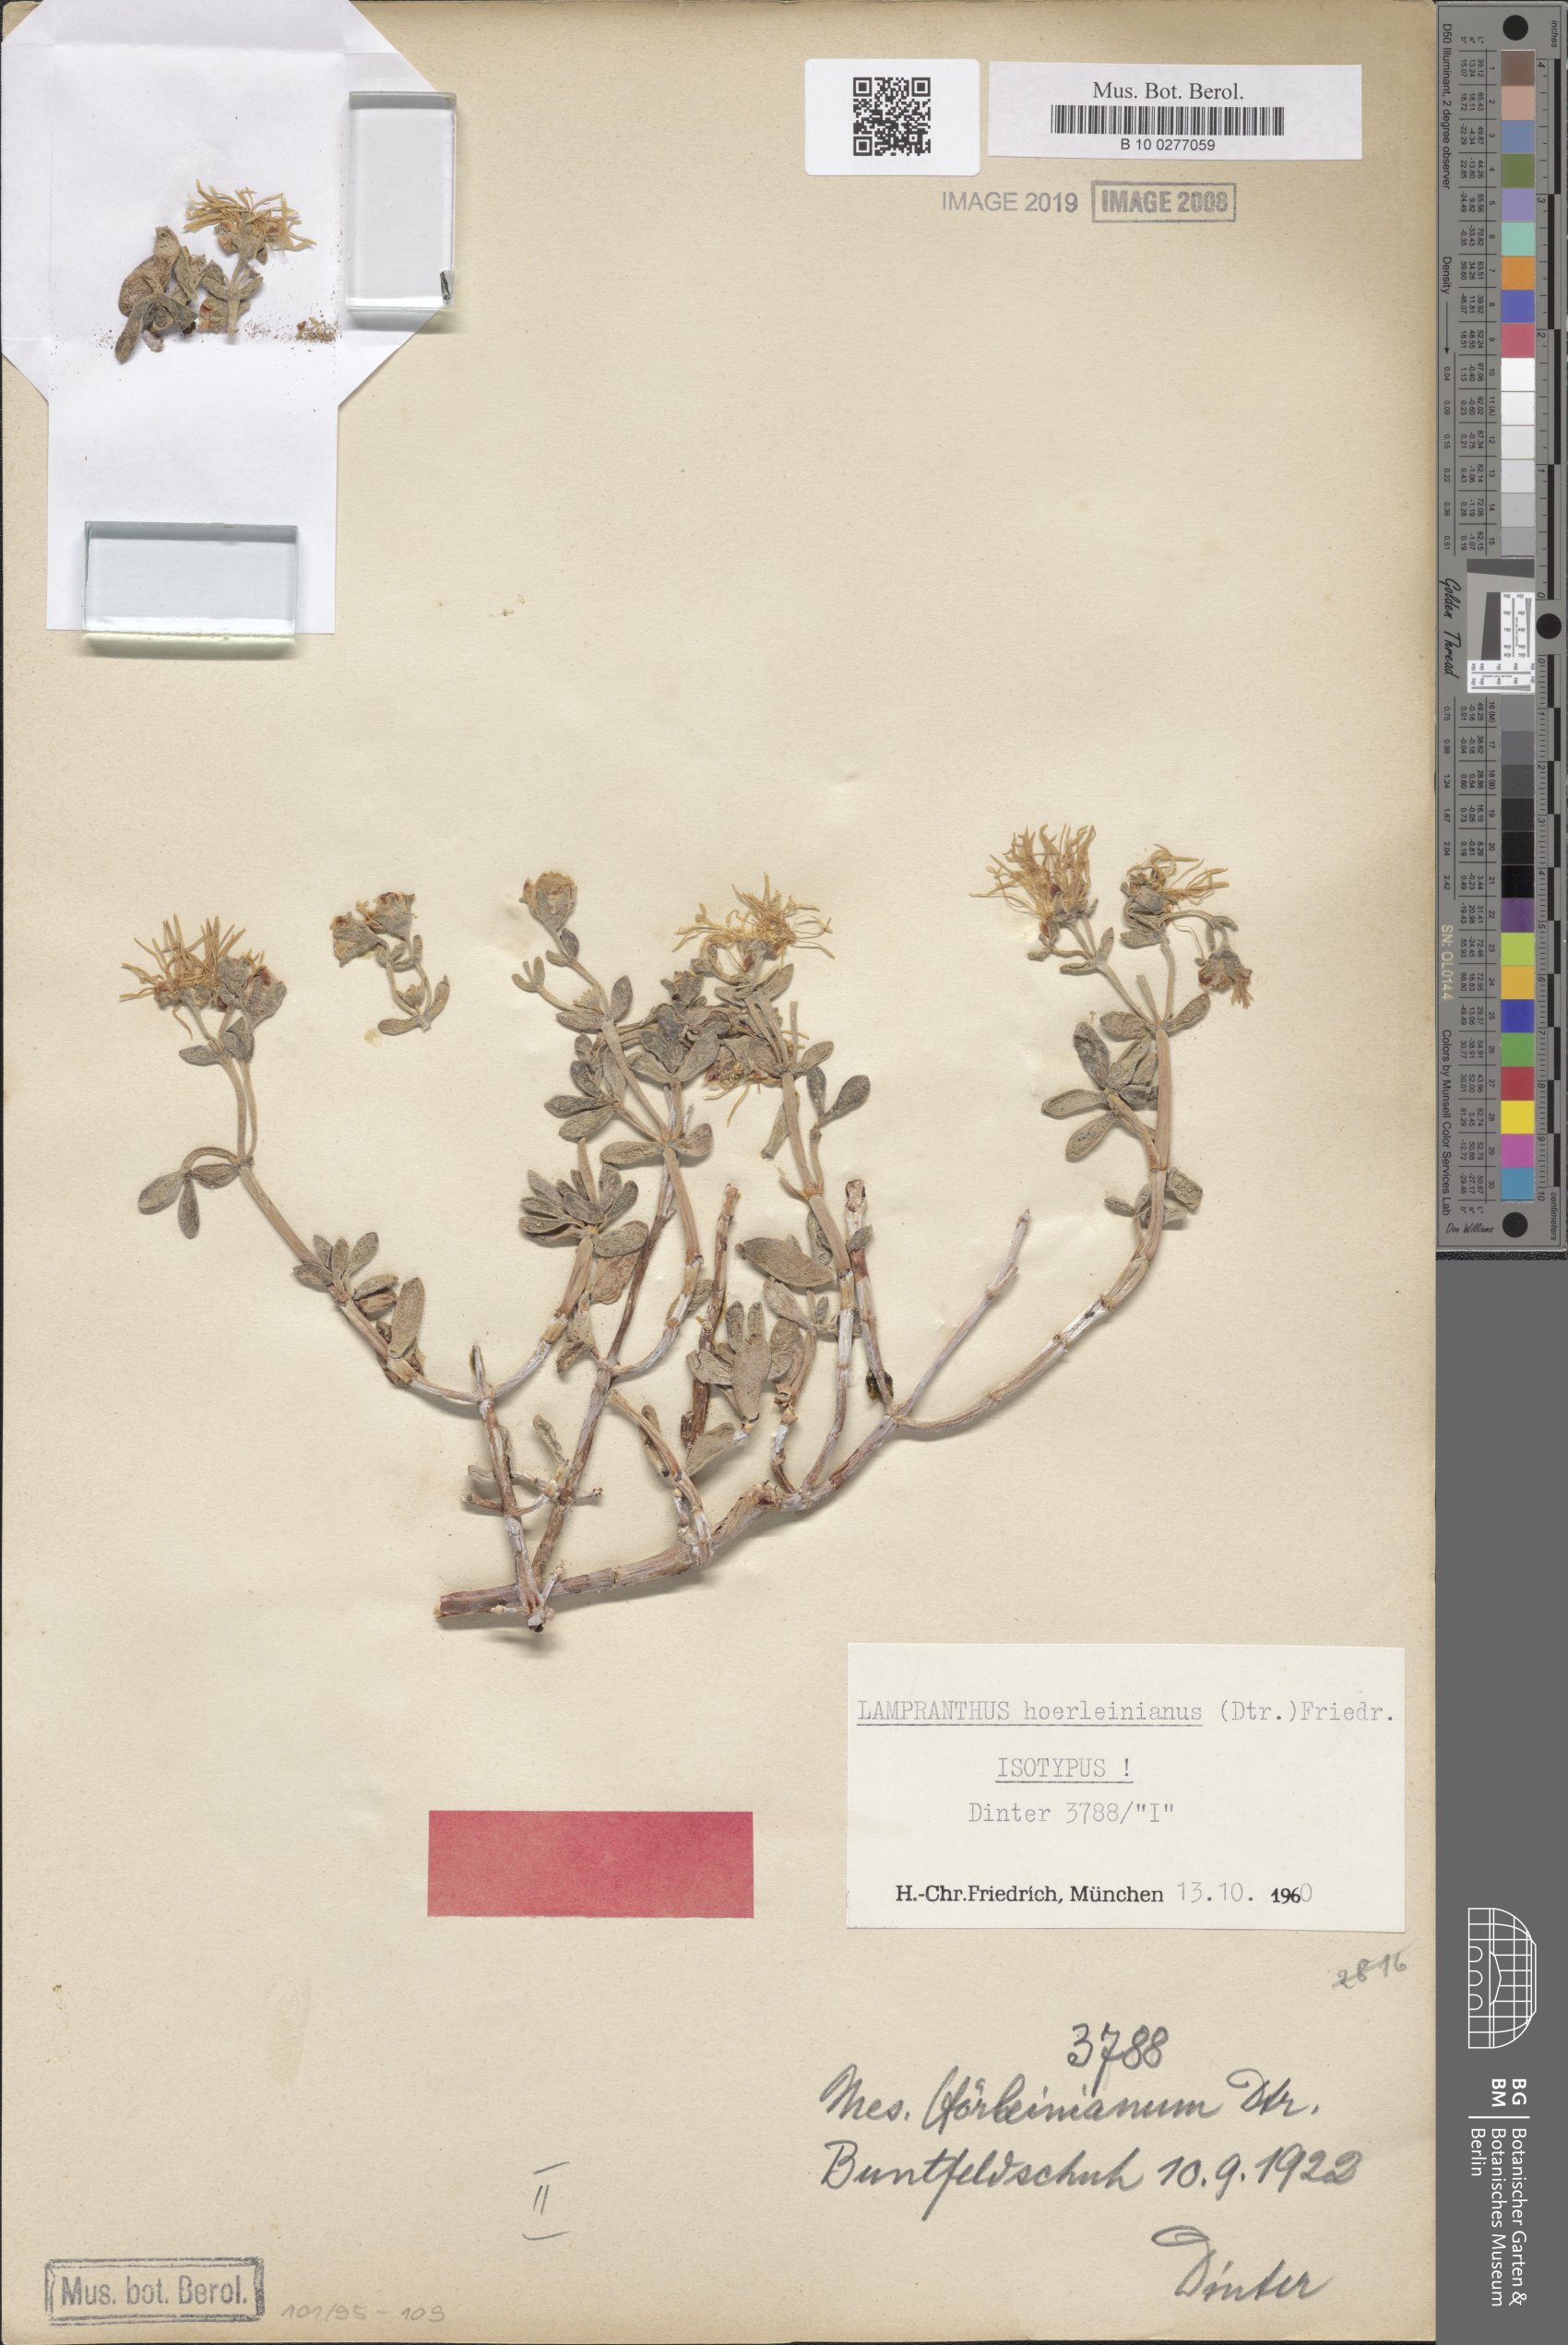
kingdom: Plantae
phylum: Tracheophyta
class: Magnoliopsida
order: Caryophyllales
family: Aizoaceae
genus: Lampranthus
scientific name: Lampranthus hoerleinianus
